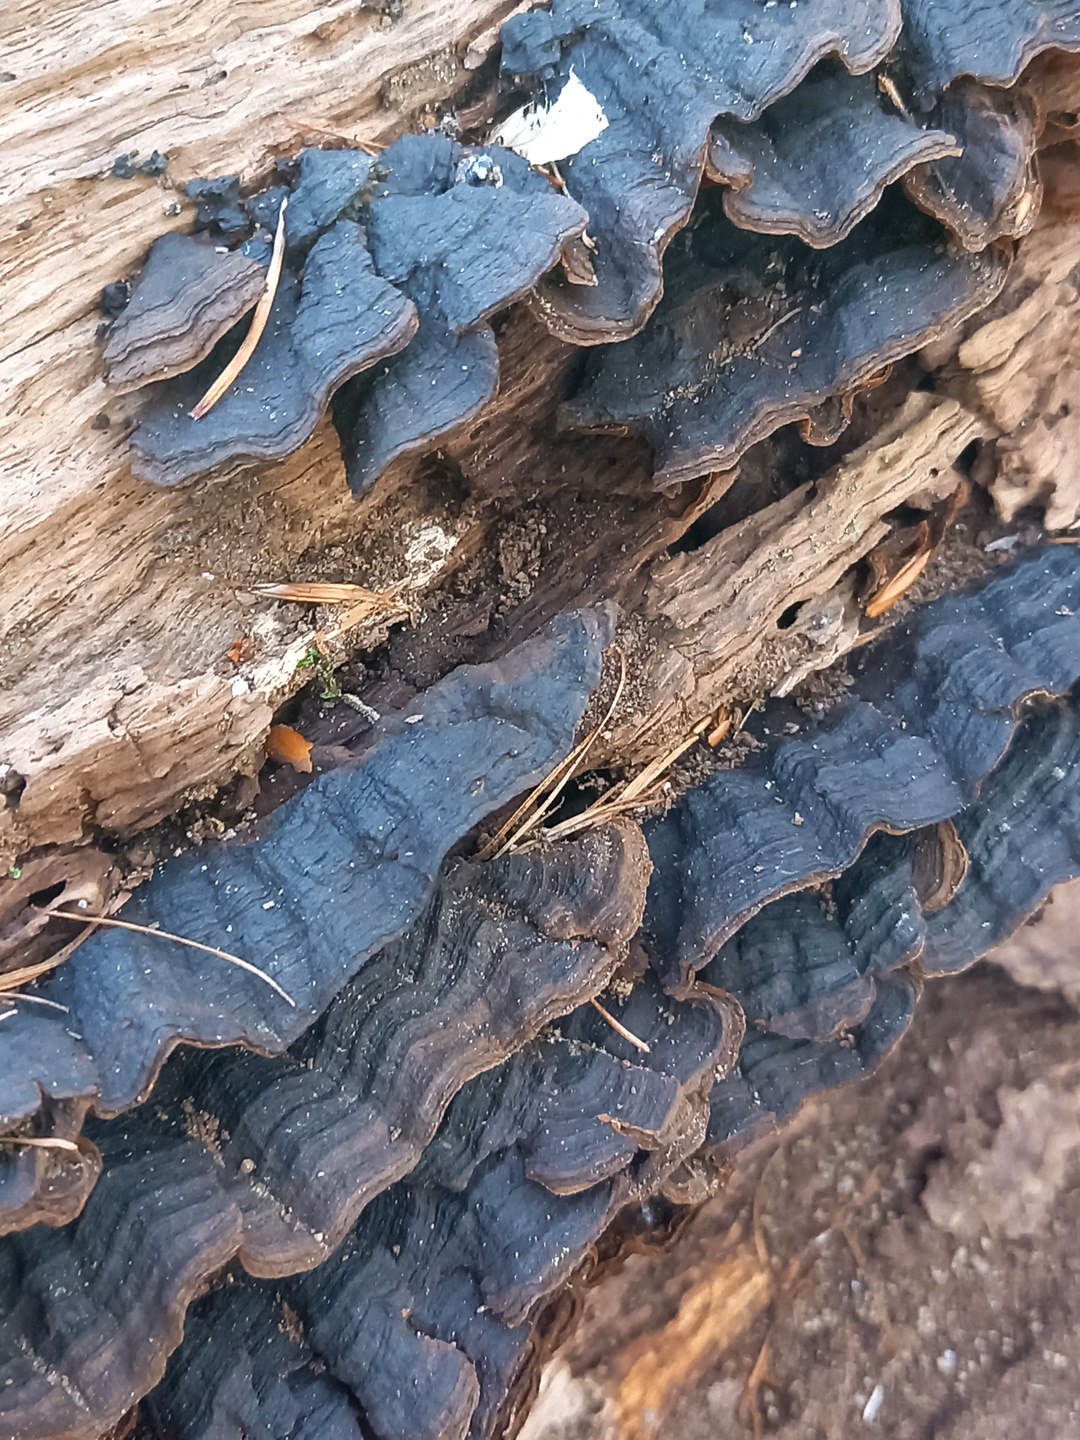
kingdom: Fungi
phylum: Basidiomycota
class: Agaricomycetes
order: Hymenochaetales
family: Hymenochaetaceae
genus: Hymenochaete
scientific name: Hymenochaete rubiginosa
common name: stiv ruslædersvamp
